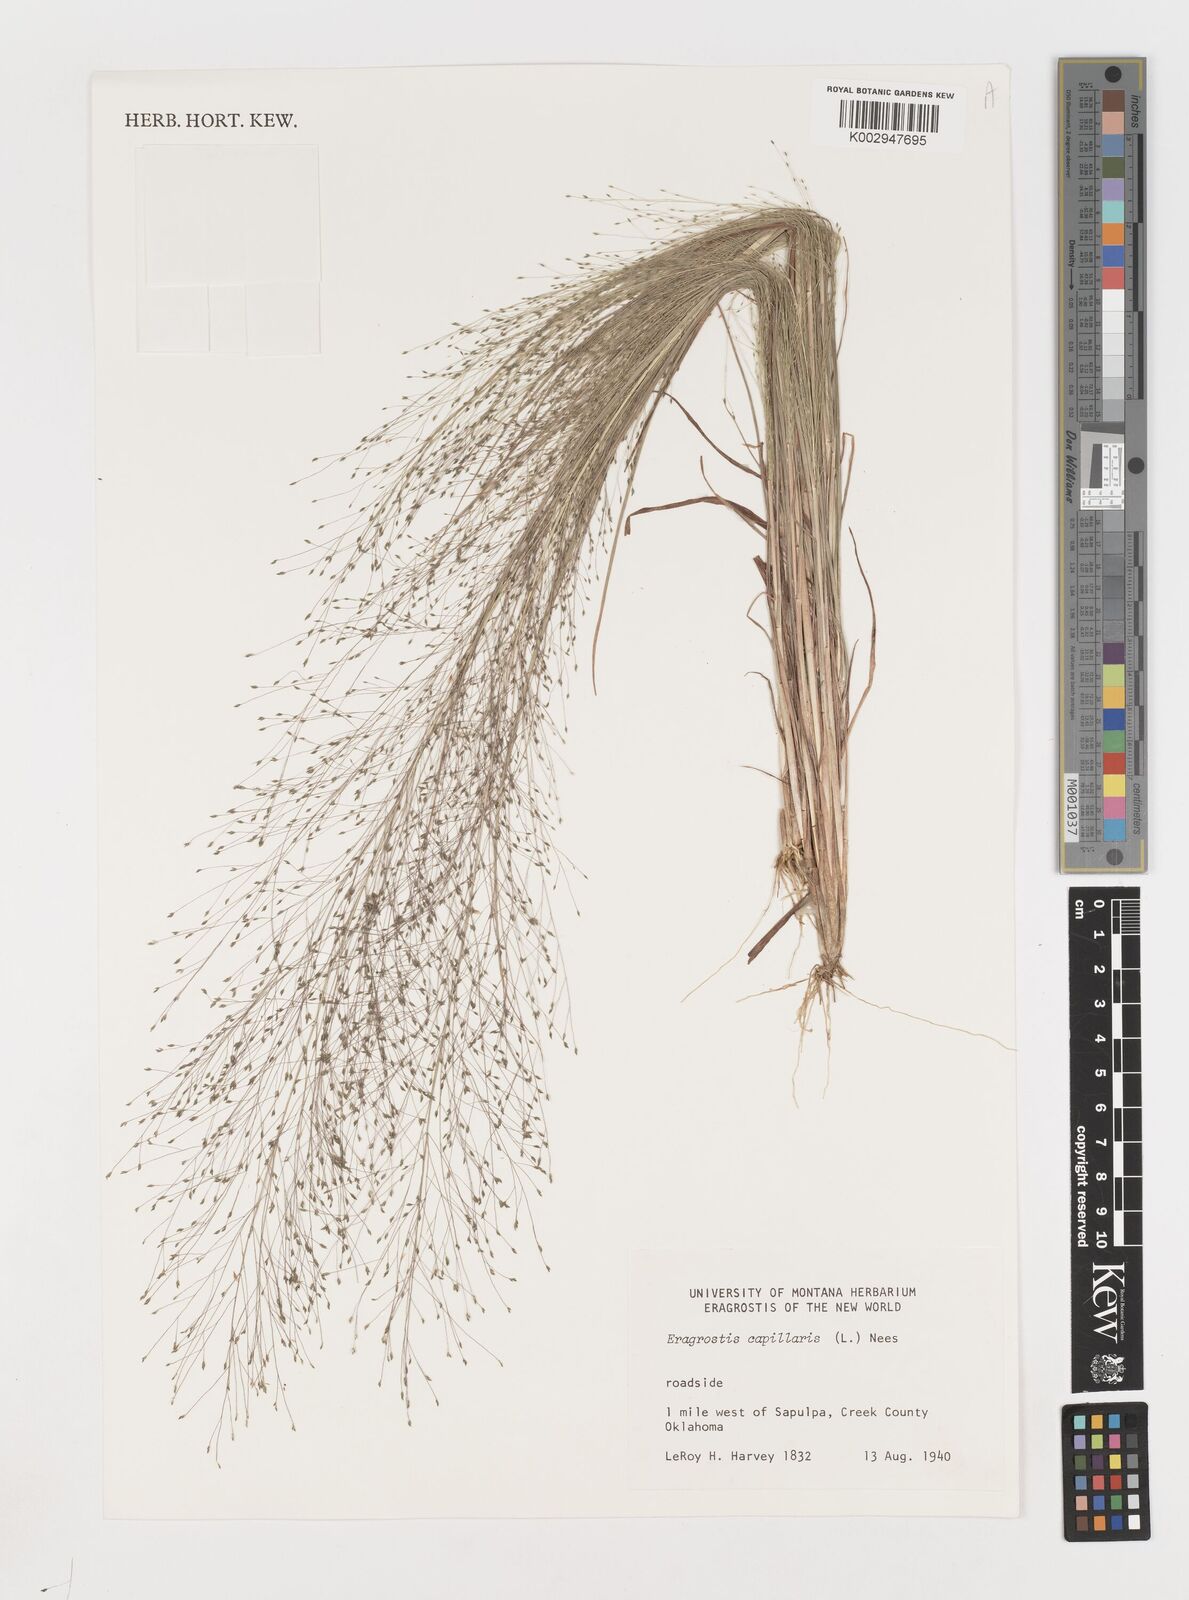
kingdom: Plantae
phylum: Tracheophyta
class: Liliopsida
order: Poales
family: Poaceae
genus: Eragrostis
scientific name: Eragrostis capillaris
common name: Hair-like lovegrass
